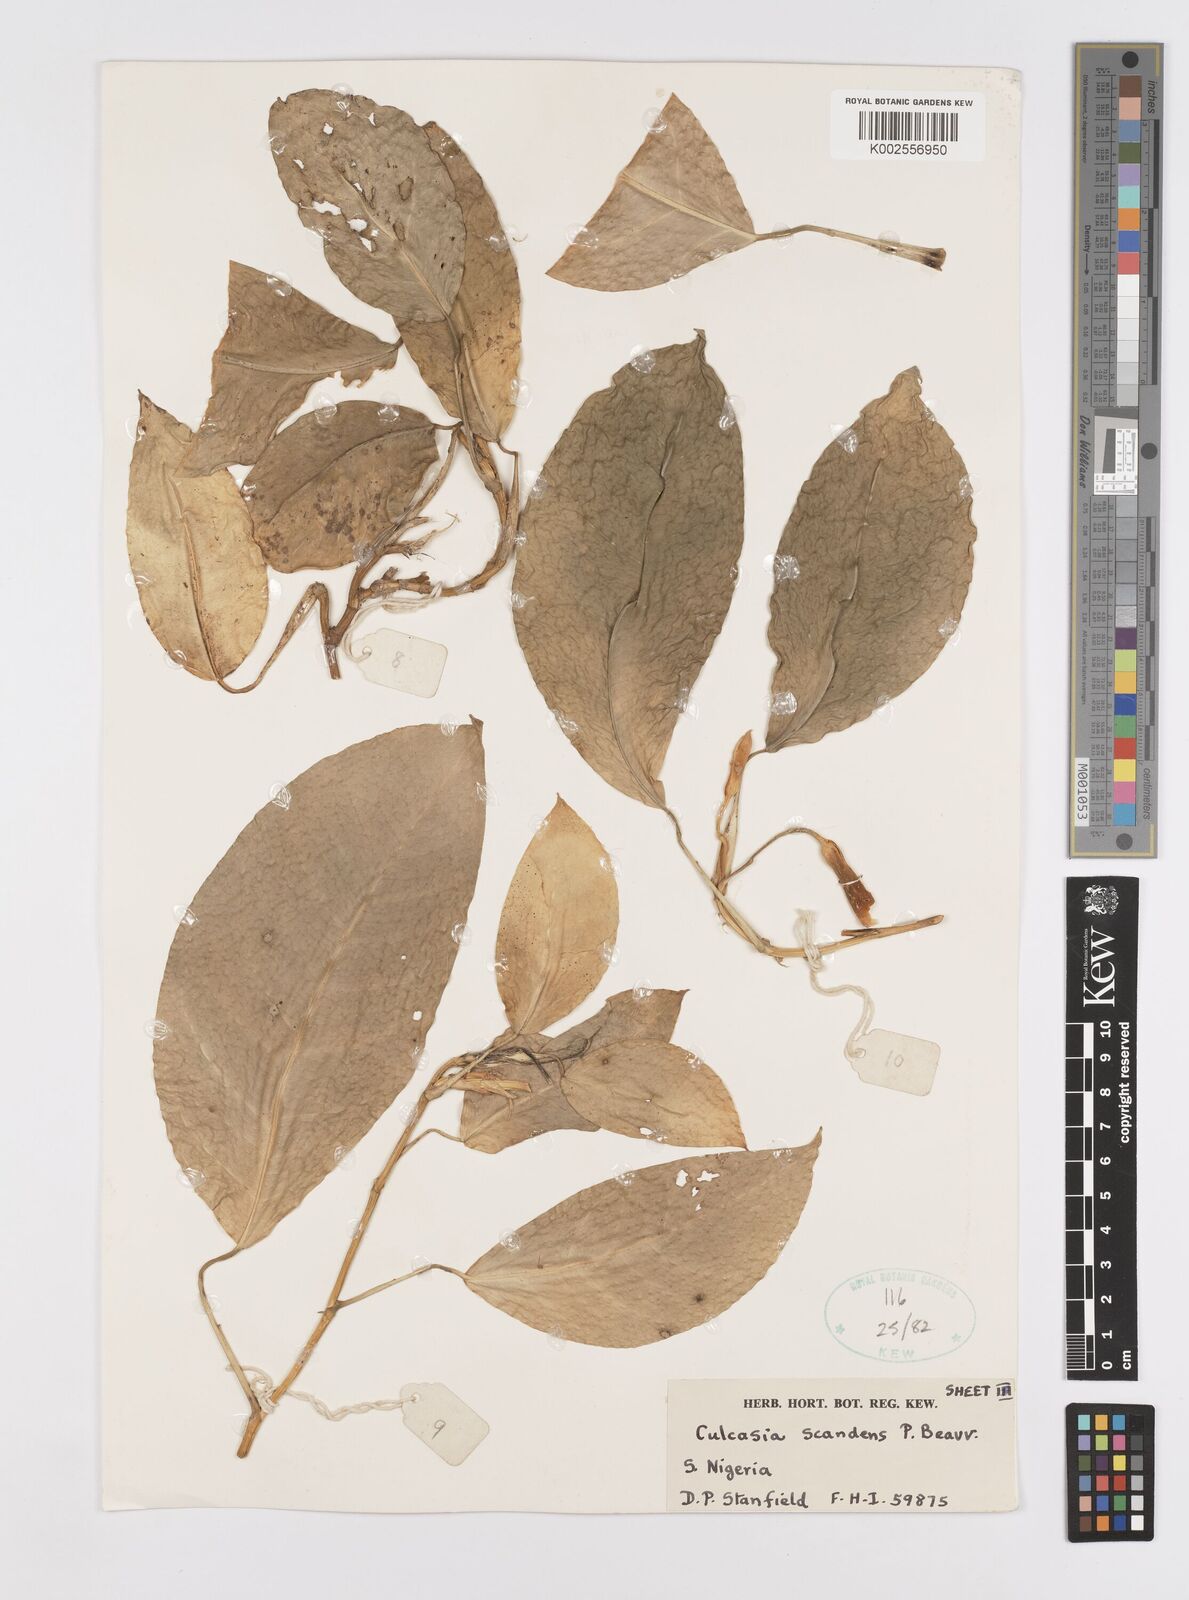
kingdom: Plantae
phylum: Tracheophyta
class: Liliopsida
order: Alismatales
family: Araceae
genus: Culcasia
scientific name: Culcasia scandens
